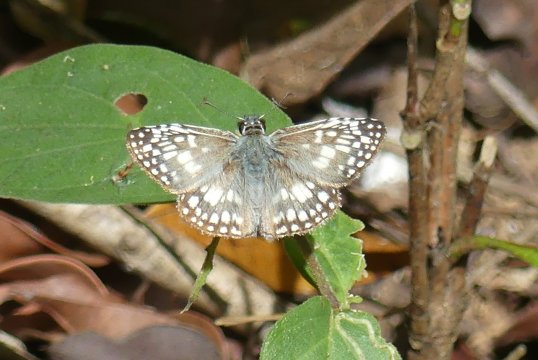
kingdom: Animalia
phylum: Arthropoda
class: Insecta
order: Lepidoptera
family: Hesperiidae
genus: Pyrgus
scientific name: Pyrgus oileus
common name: Tropical Checkered-Skipper
